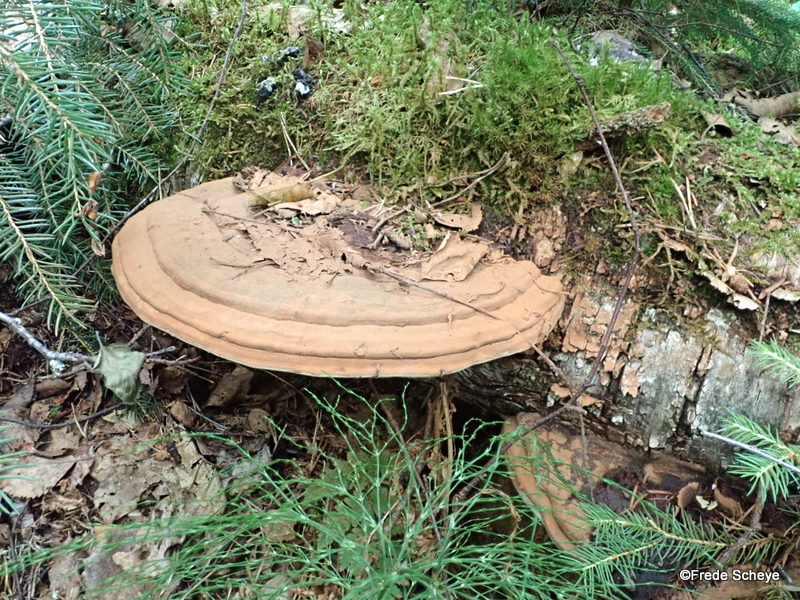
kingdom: Fungi
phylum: Basidiomycota
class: Agaricomycetes
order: Polyporales
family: Polyporaceae
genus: Ganoderma
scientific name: Ganoderma applanatum
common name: flad lakporesvamp
